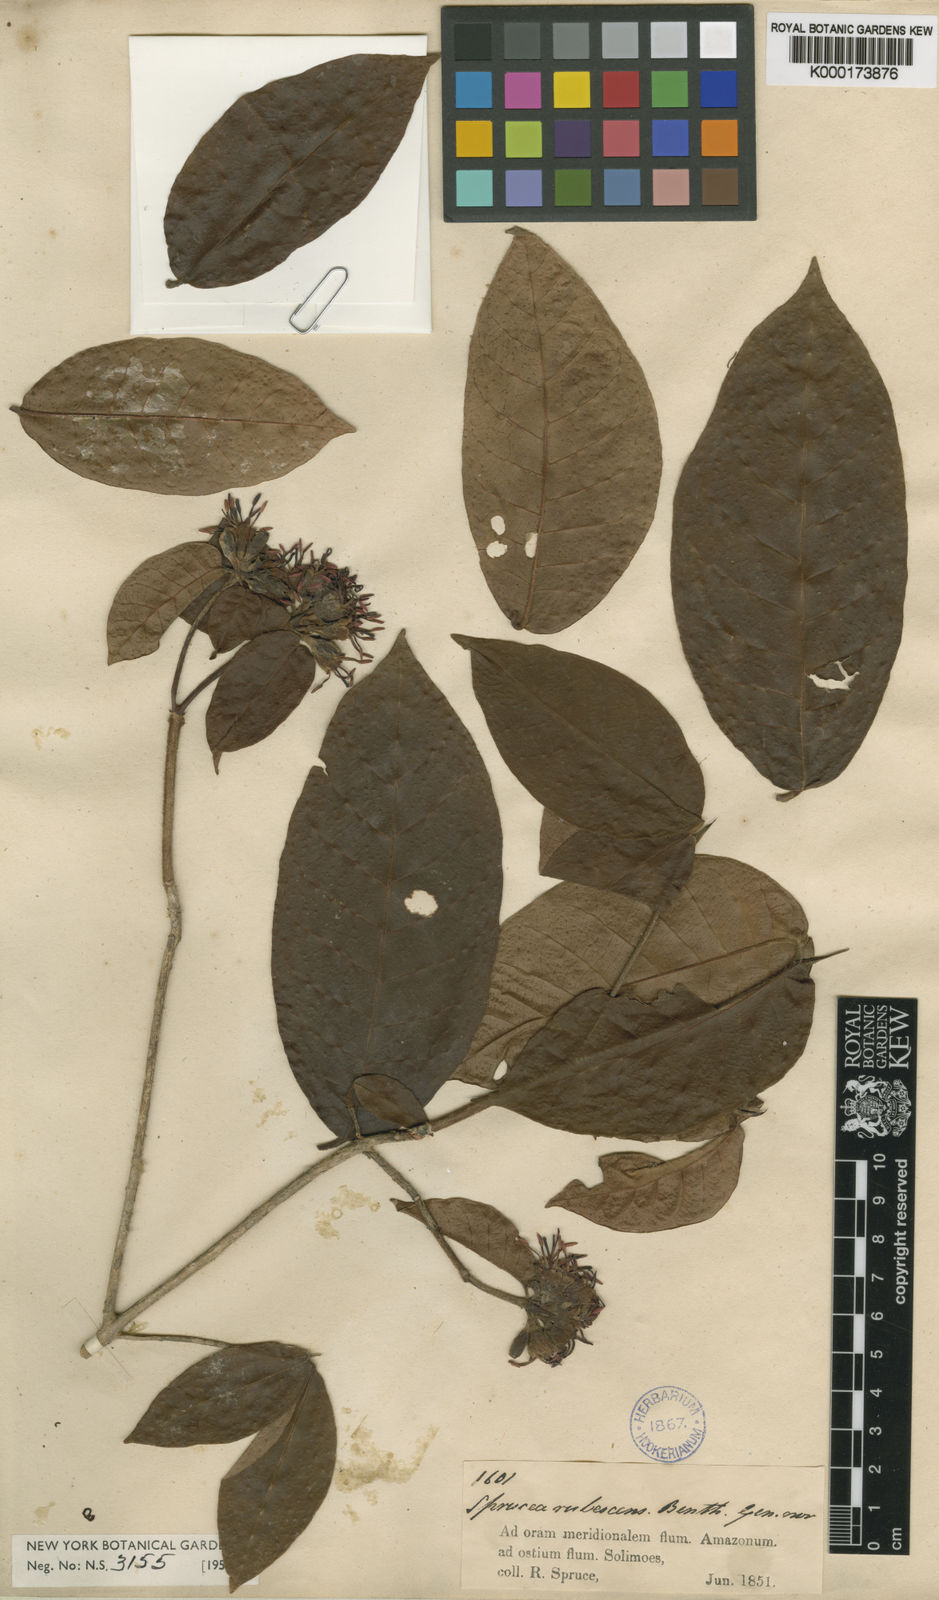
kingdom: Plantae
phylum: Tracheophyta
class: Magnoliopsida
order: Gentianales
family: Rubiaceae
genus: Simira
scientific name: Simira rubescens
